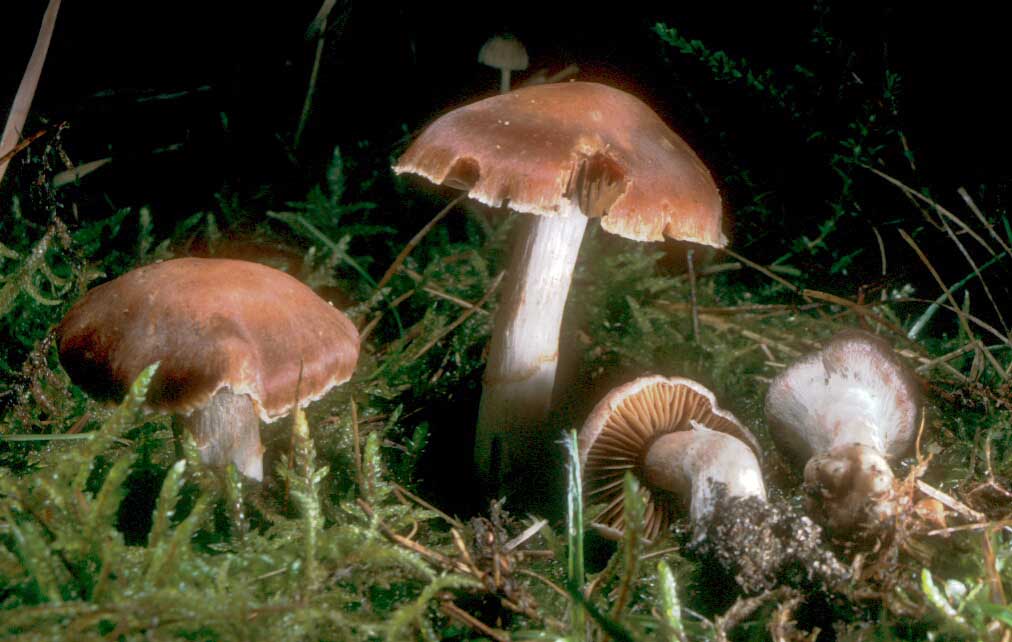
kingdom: Fungi
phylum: Basidiomycota
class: Agaricomycetes
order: Agaricales
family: Cortinariaceae
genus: Cortinarius
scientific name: Cortinarius kauffmanianus
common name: plantage-slørhat
